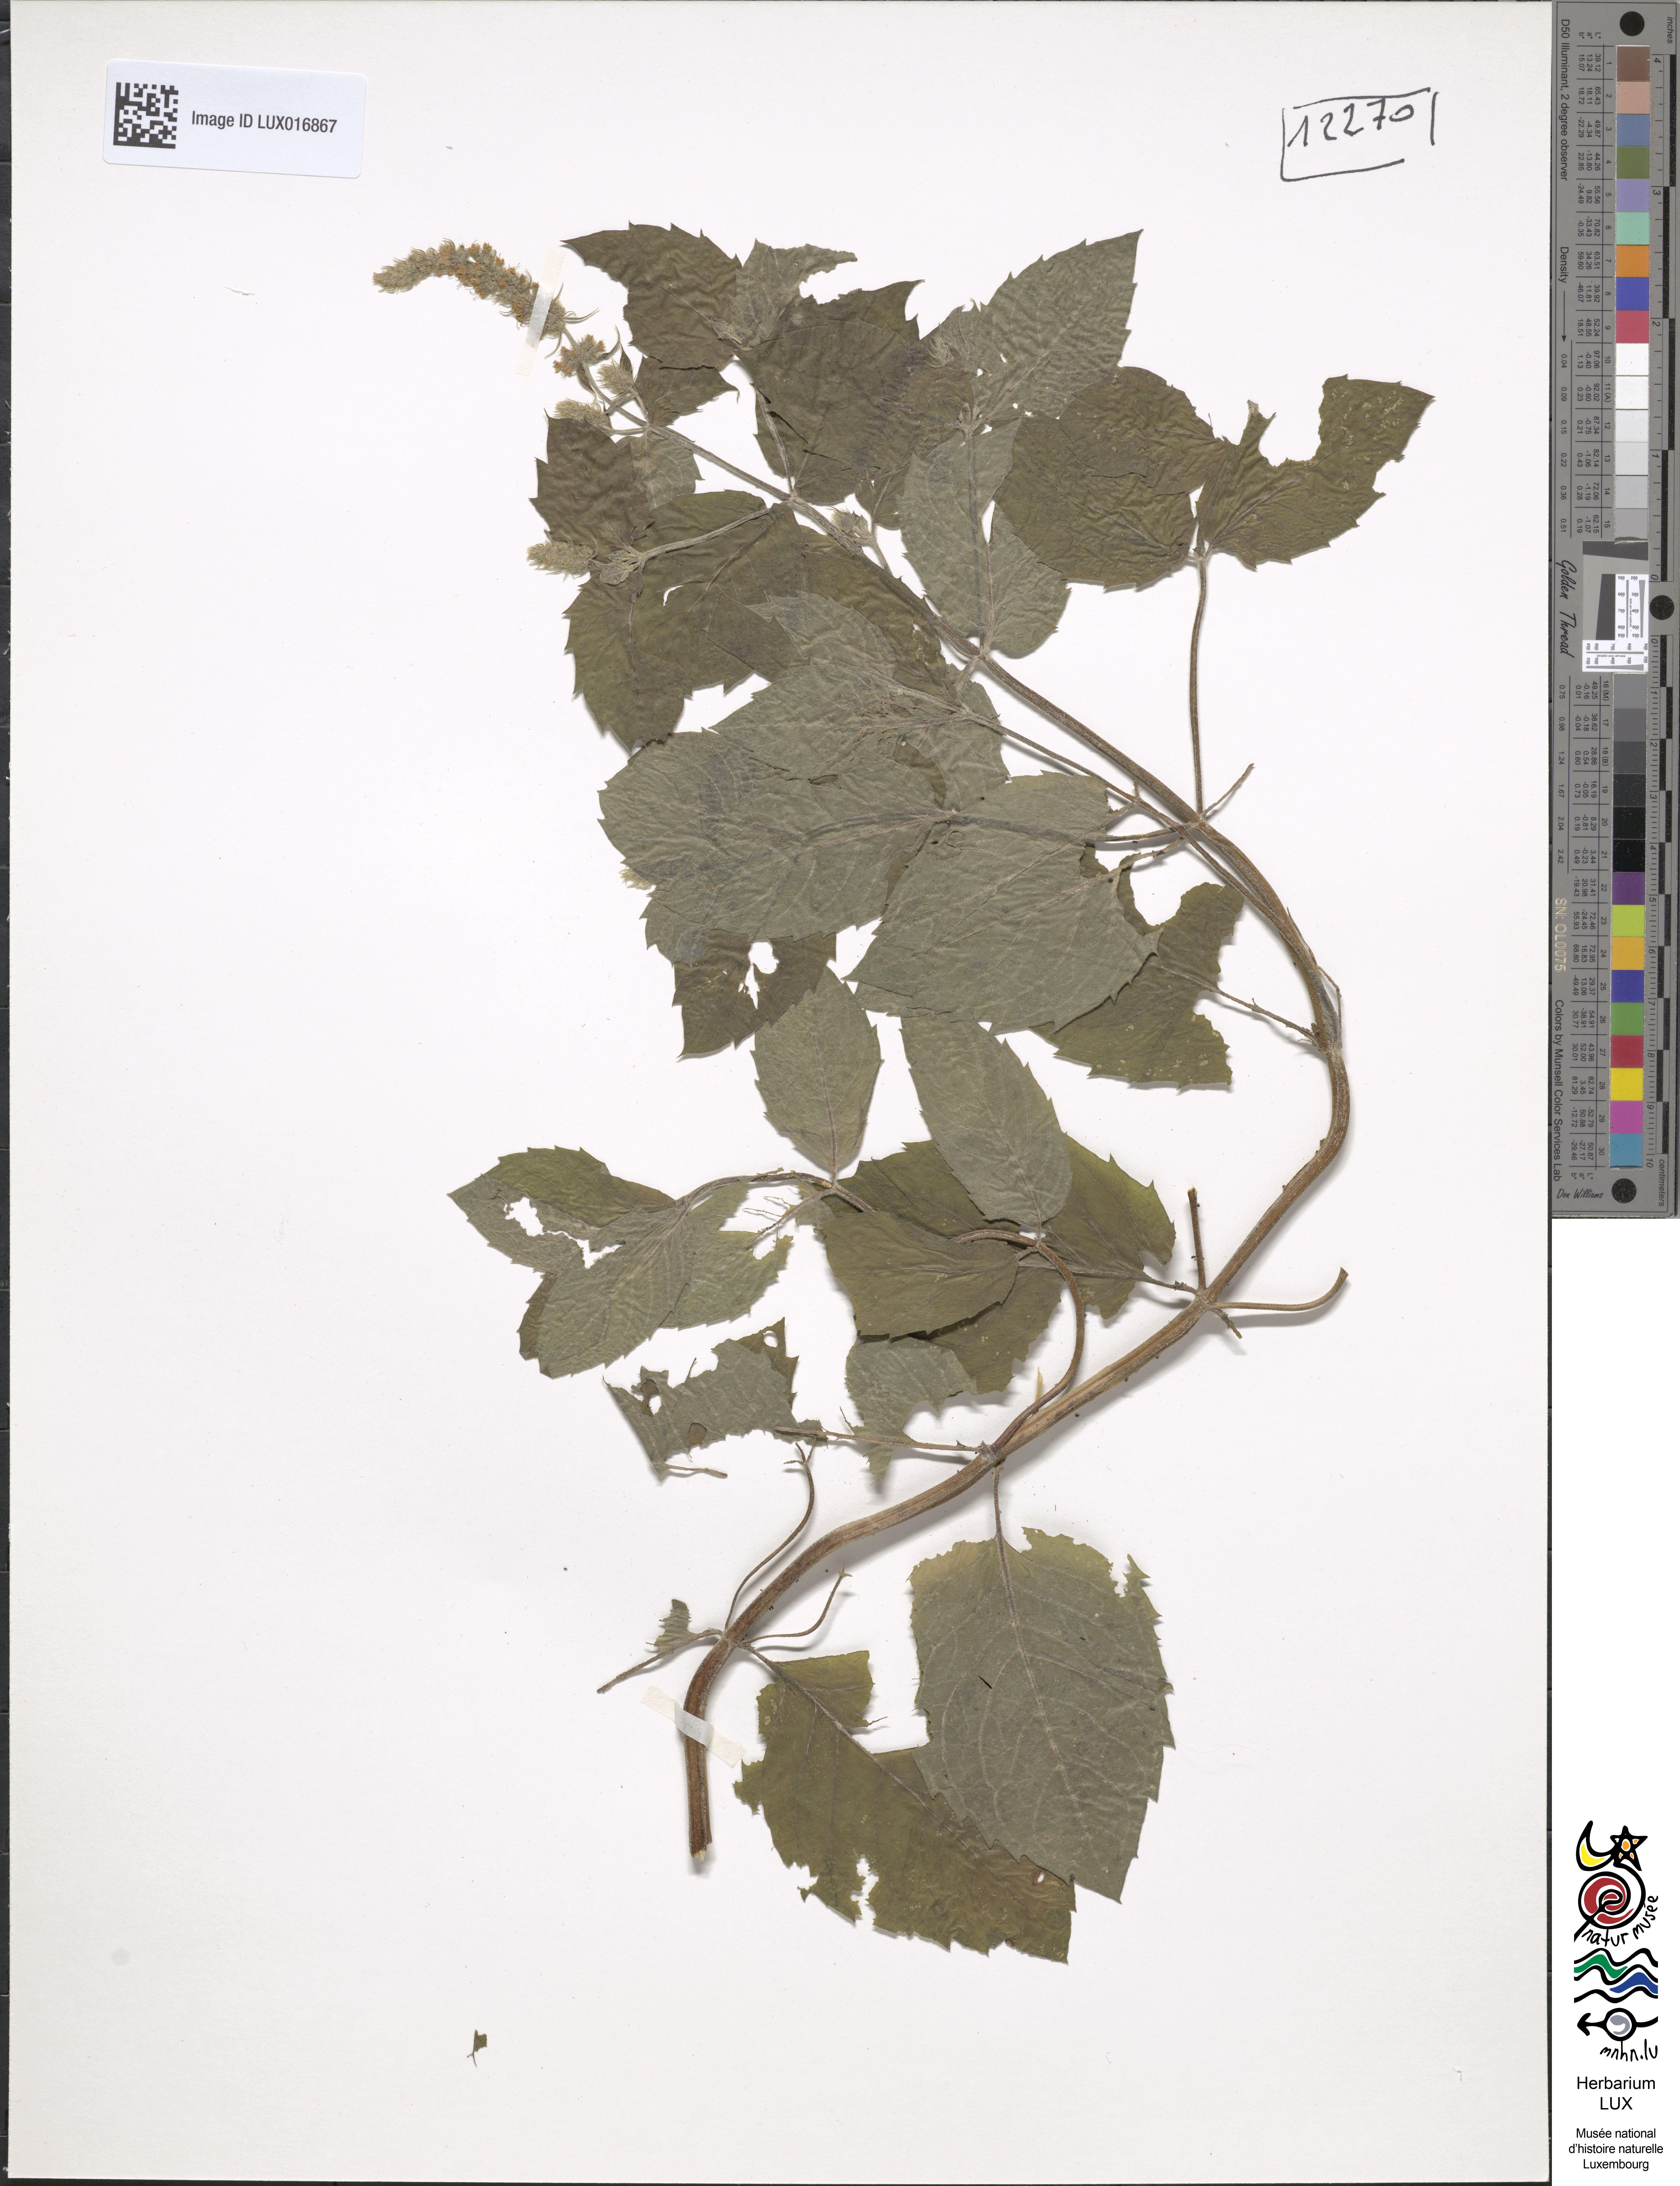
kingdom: Plantae
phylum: Tracheophyta
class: Magnoliopsida
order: Lamiales
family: Lamiaceae
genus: Mentha
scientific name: Mentha rotundifolia
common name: Bigleaf mint
